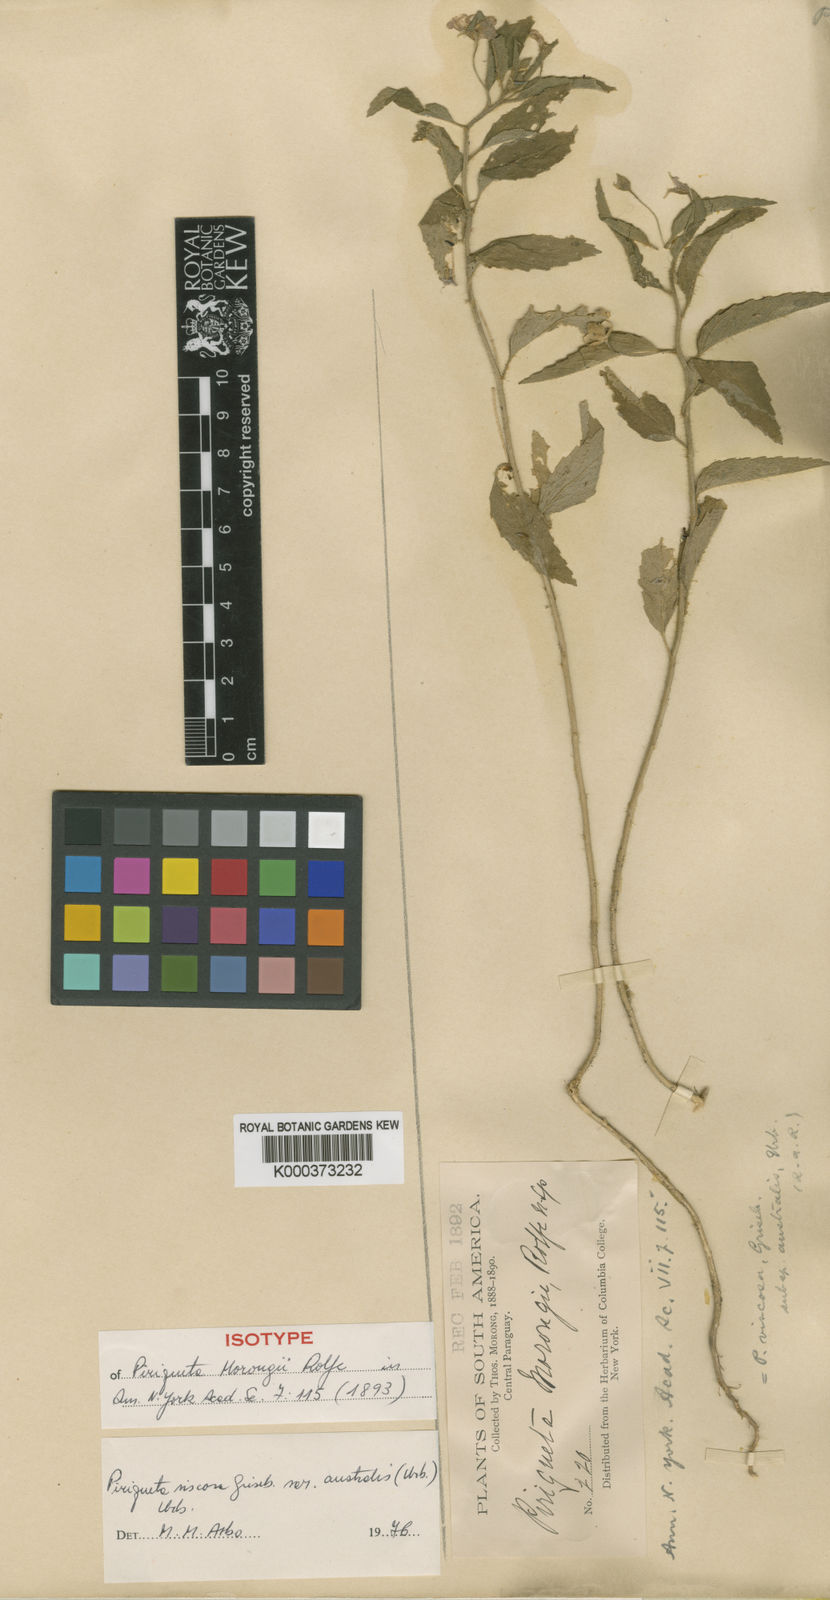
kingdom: Plantae
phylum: Tracheophyta
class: Magnoliopsida
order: Malpighiales
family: Turneraceae
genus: Piriqueta
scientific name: Piriqueta morongii
